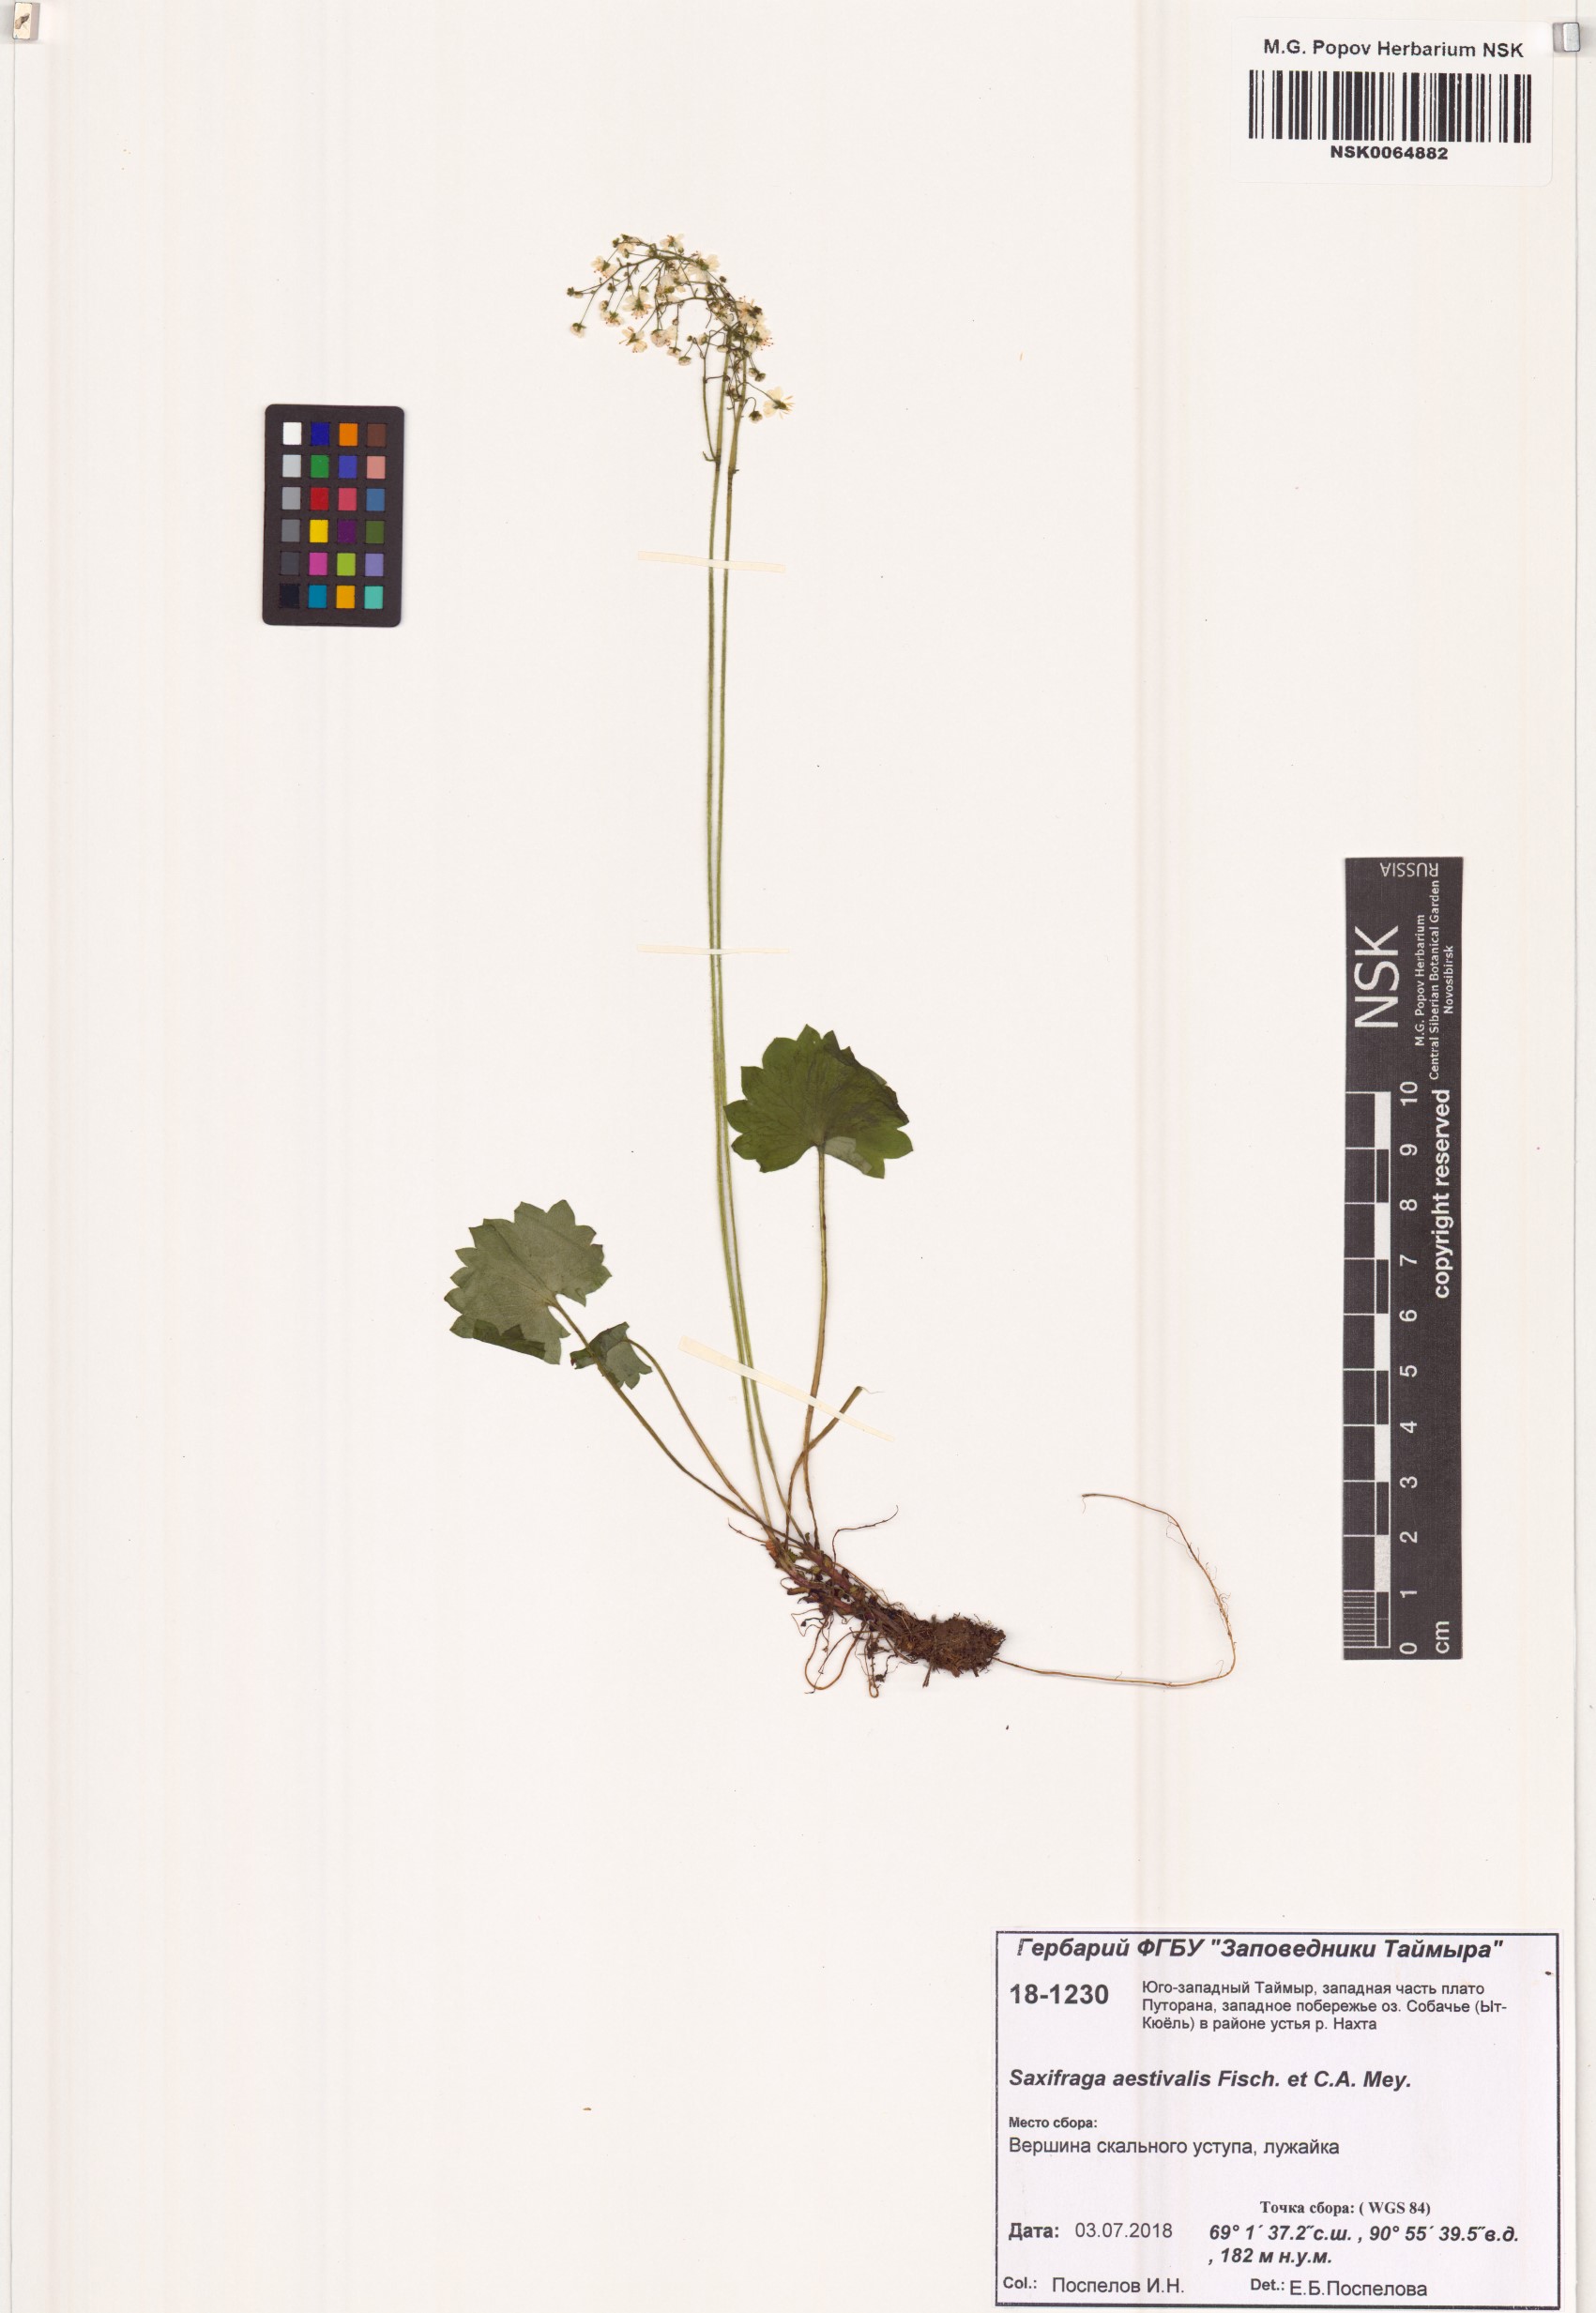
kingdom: Plantae
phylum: Tracheophyta
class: Magnoliopsida
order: Saxifragales
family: Saxifragaceae
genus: Micranthes
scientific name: Micranthes nelsoniana
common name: Nelson's saxifrage
